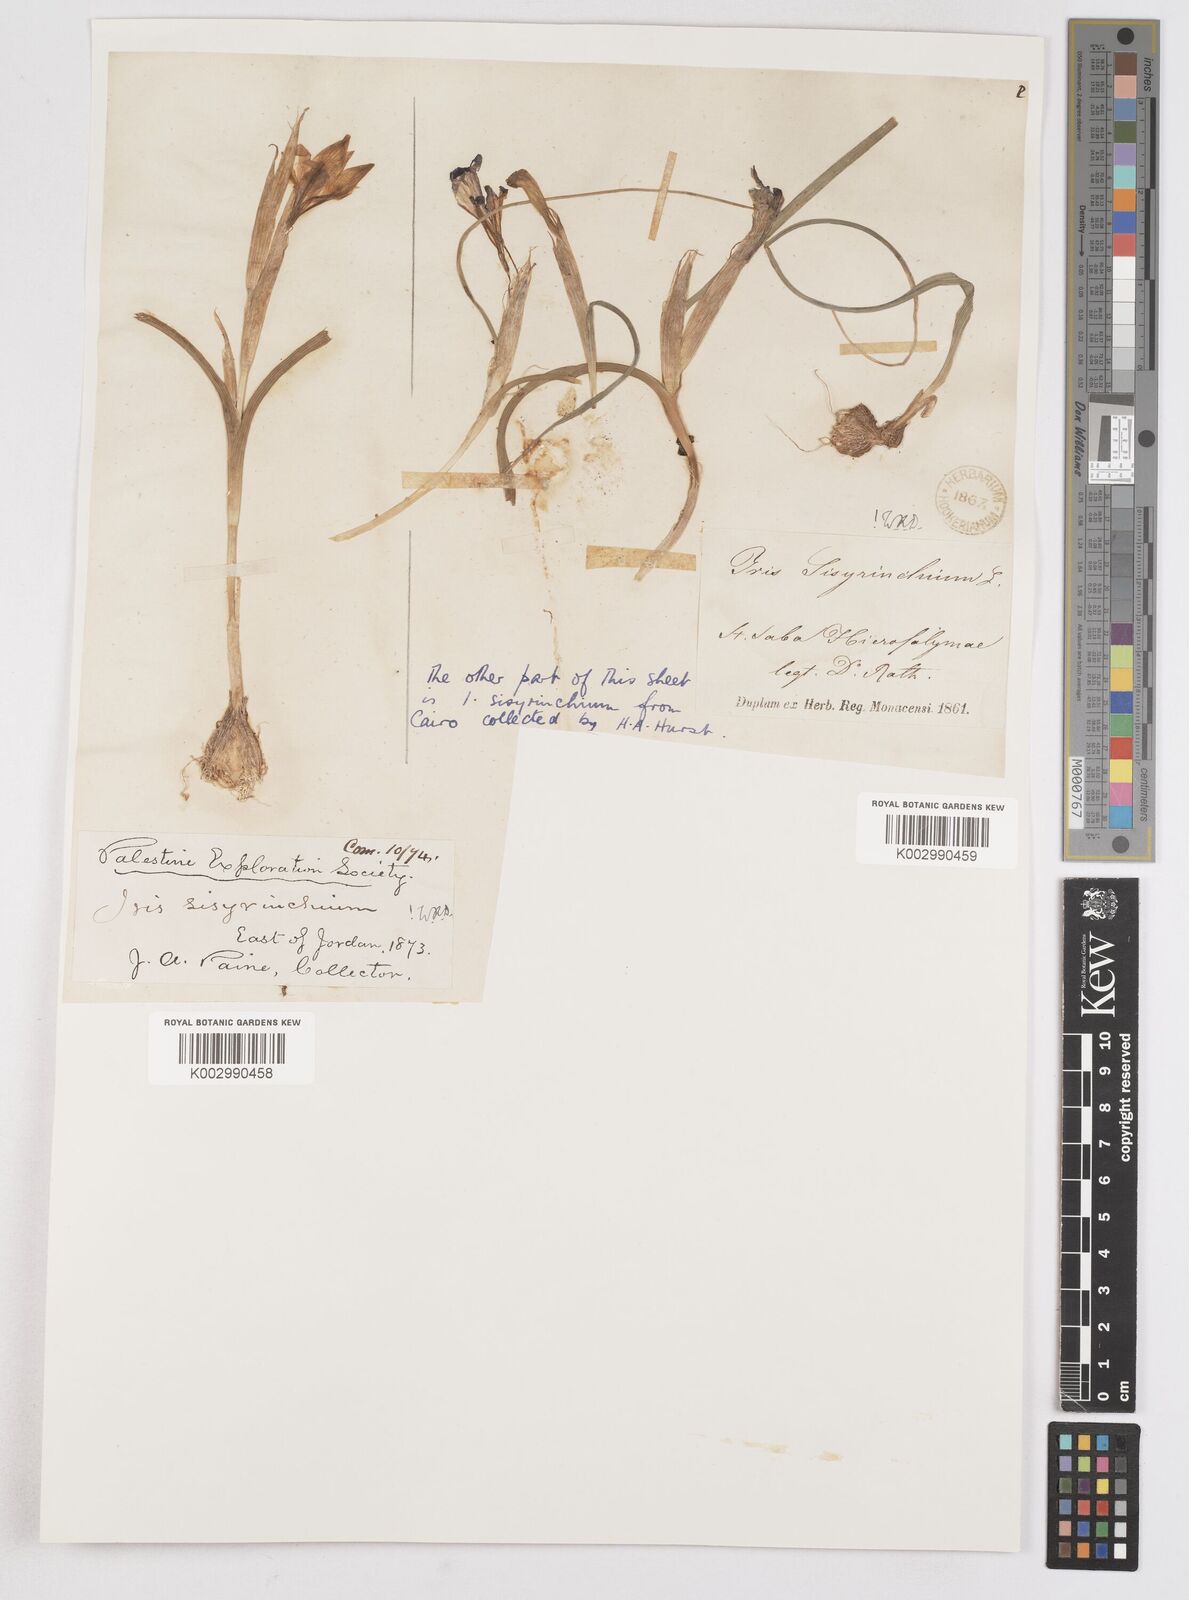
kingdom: Plantae
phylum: Tracheophyta
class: Liliopsida
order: Asparagales
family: Iridaceae
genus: Moraea
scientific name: Moraea sisyrinchium
